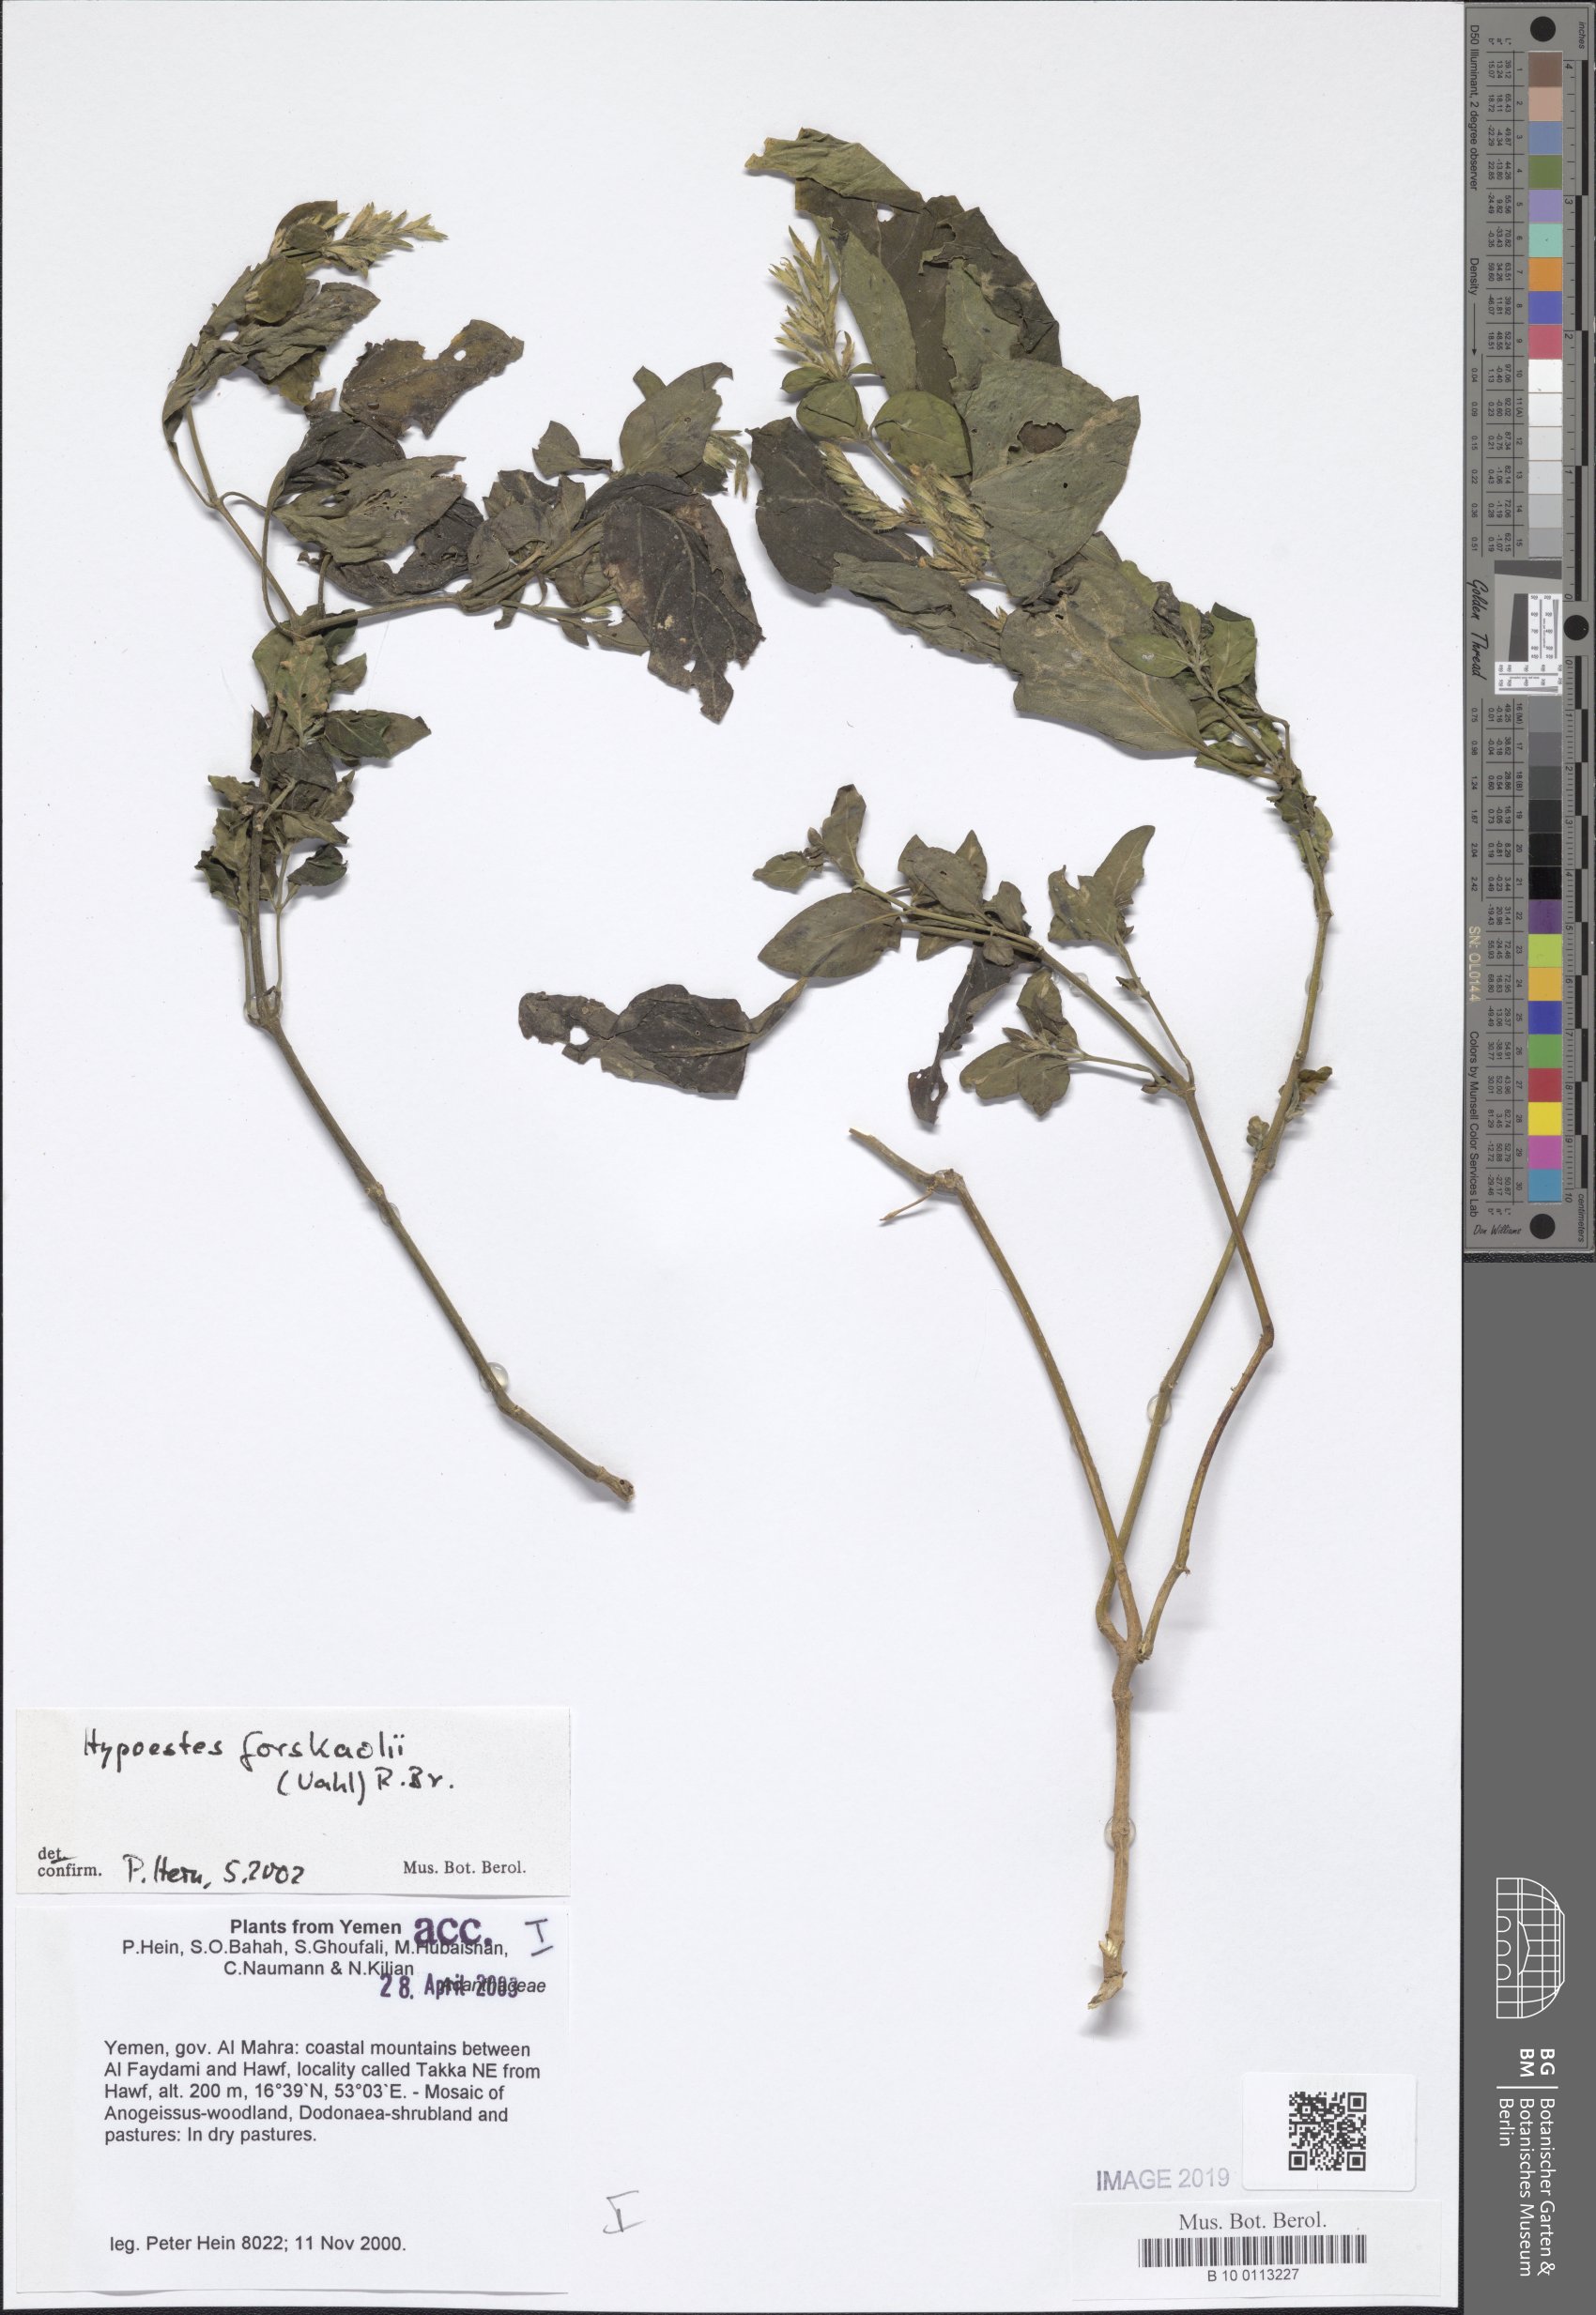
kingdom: Plantae
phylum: Tracheophyta
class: Magnoliopsida
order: Lamiales
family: Acanthaceae
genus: Hypoestes
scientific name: Hypoestes forskaolii
